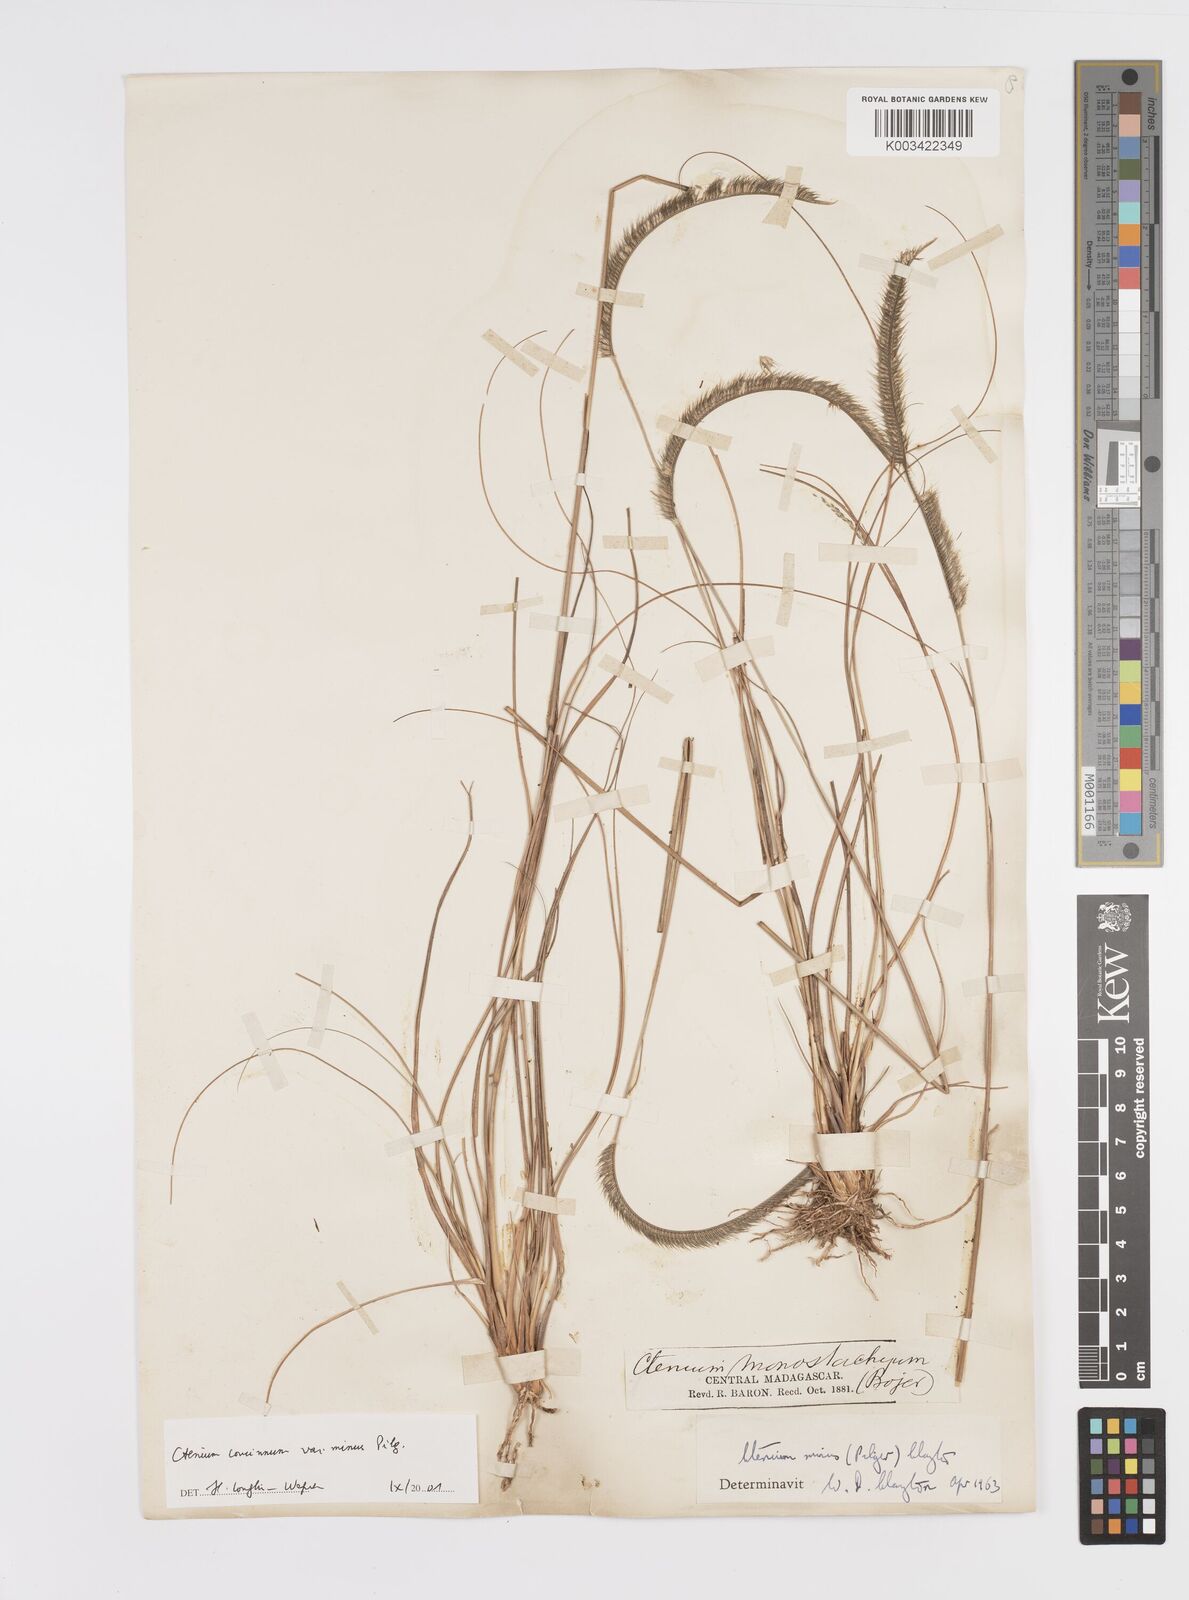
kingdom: Plantae
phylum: Tracheophyta
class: Liliopsida
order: Poales
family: Poaceae
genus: Ctenium
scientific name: Ctenium concinnum
